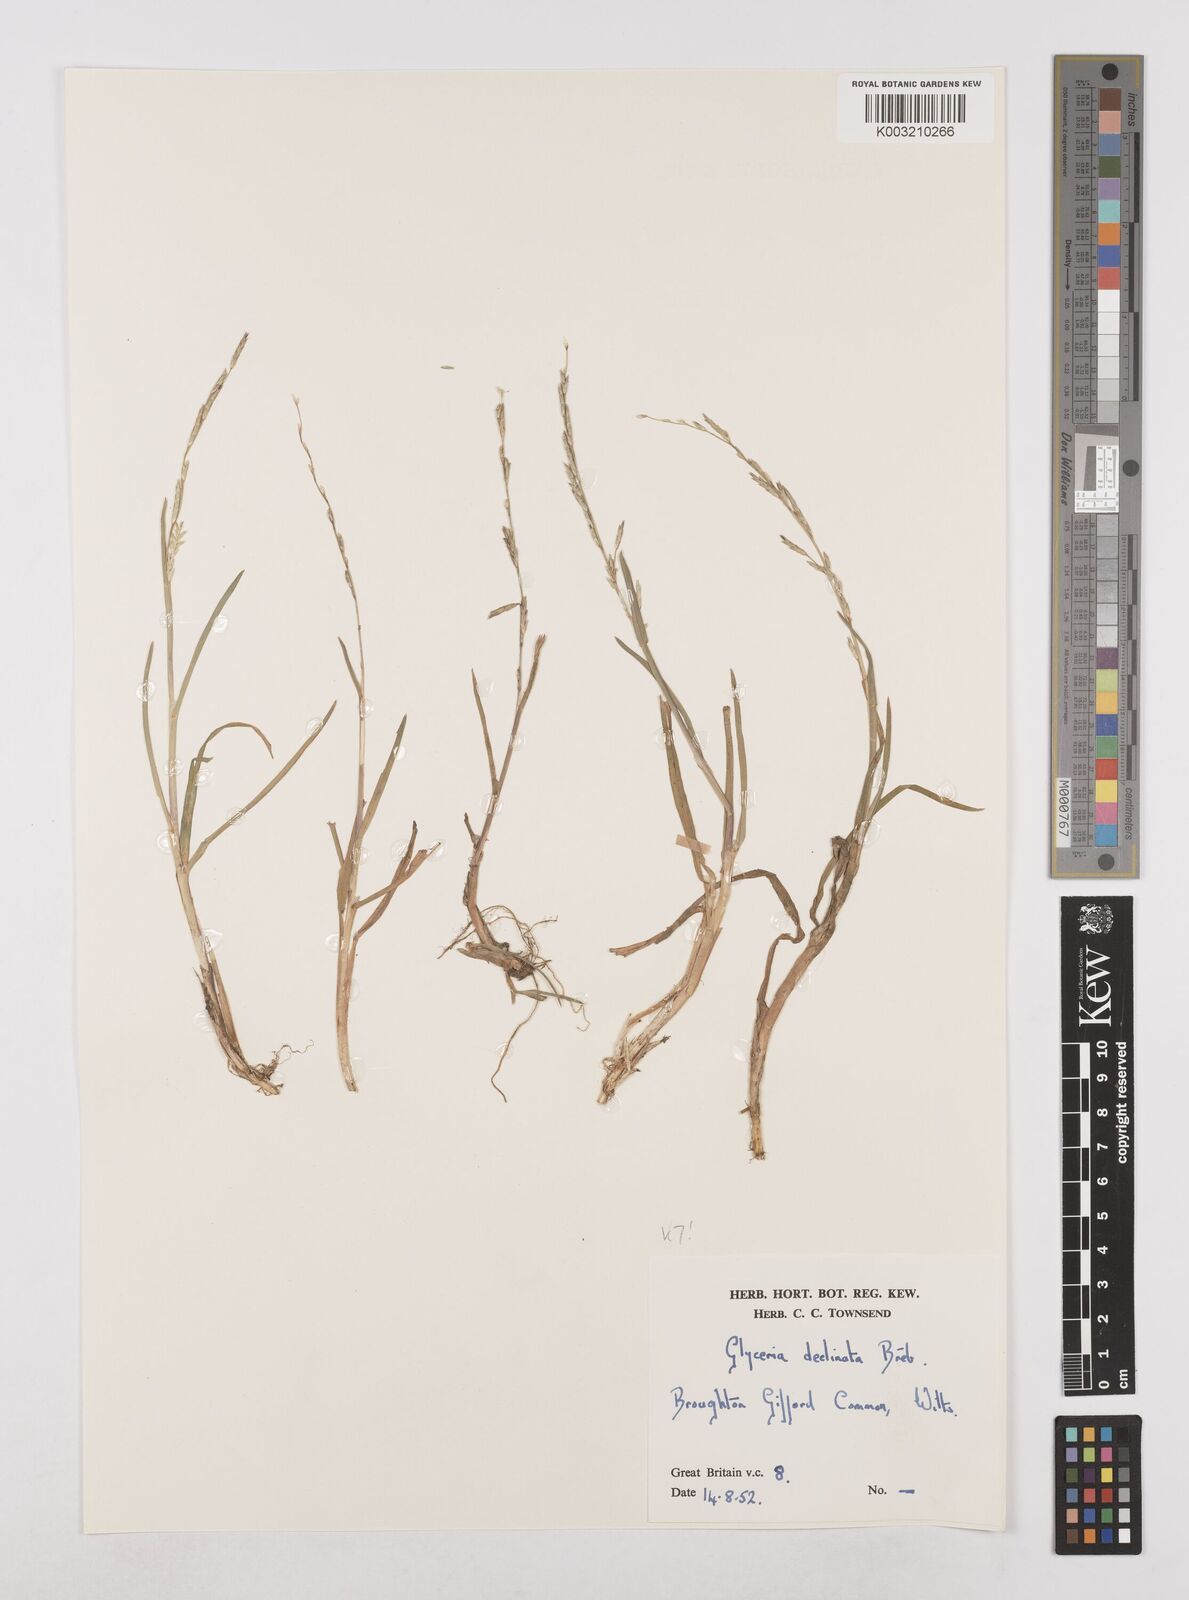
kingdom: Plantae
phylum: Tracheophyta
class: Liliopsida
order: Poales
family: Poaceae
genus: Glyceria
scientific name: Glyceria declinata
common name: Small sweet-grass
